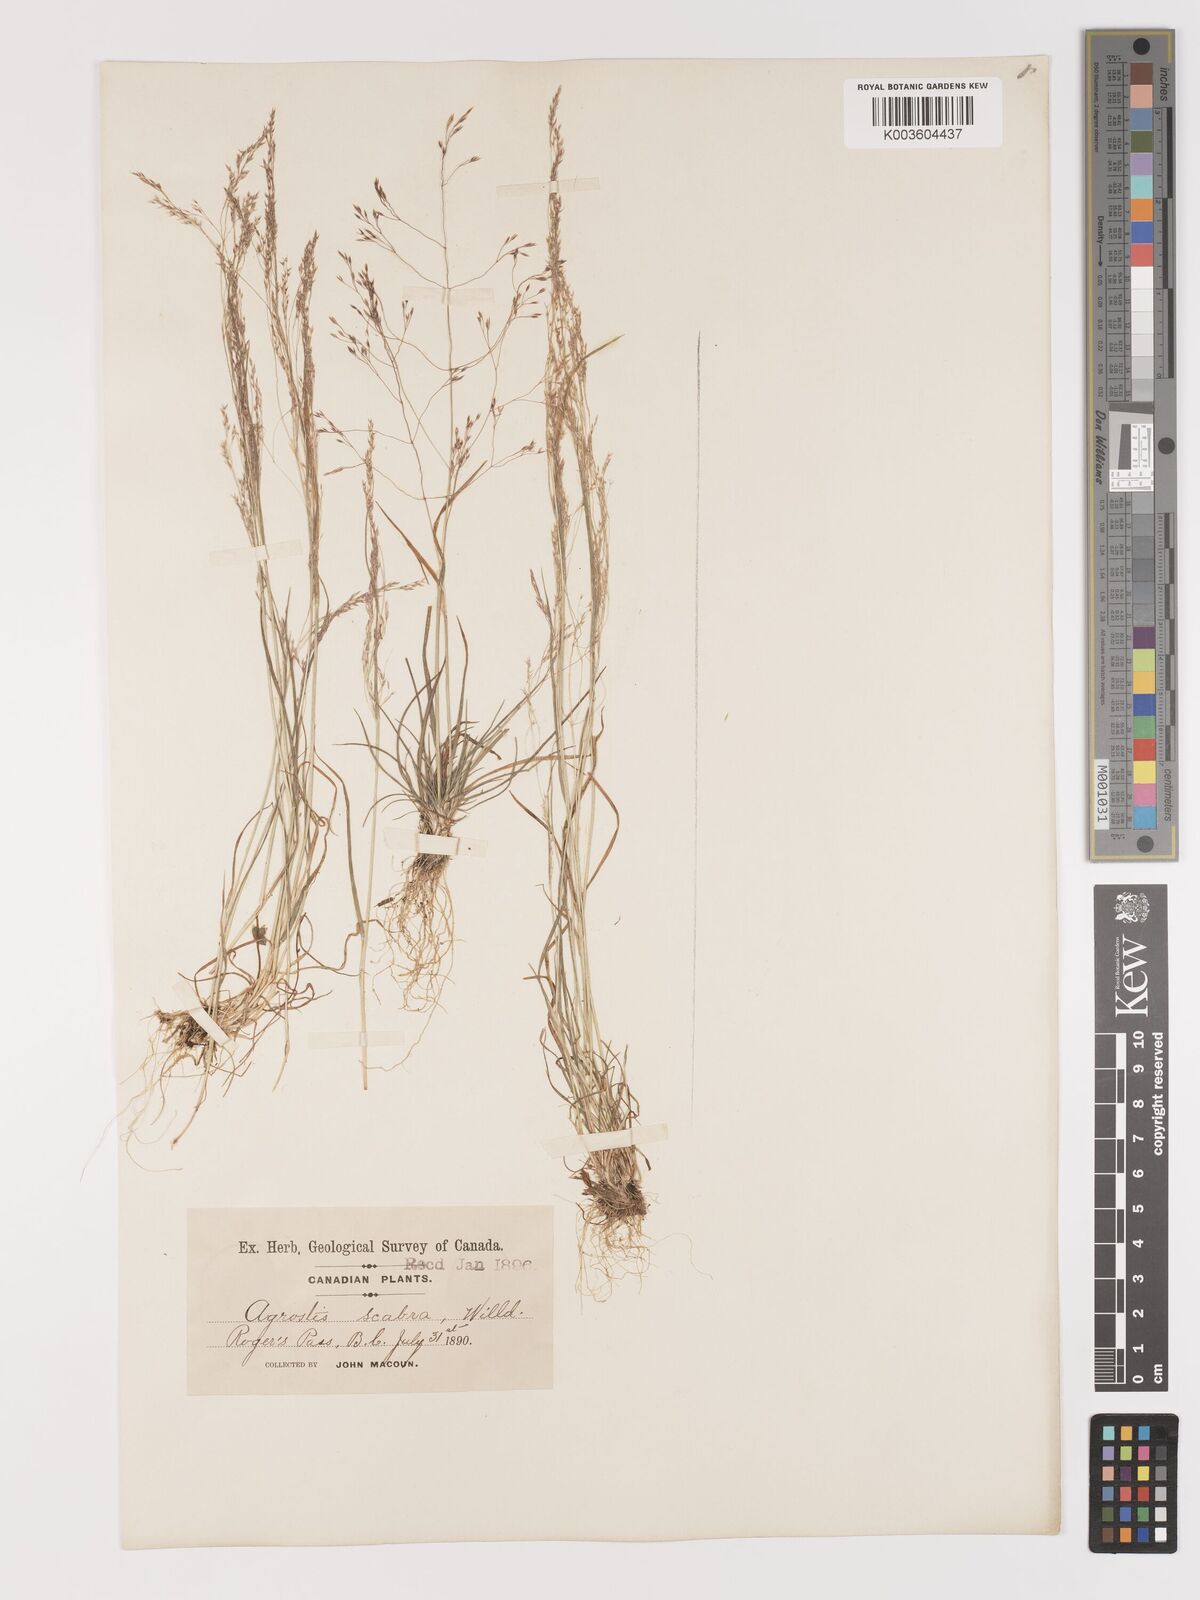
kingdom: Plantae
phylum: Tracheophyta
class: Liliopsida
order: Poales
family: Poaceae
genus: Agrostis
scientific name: Agrostis hyemalis
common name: Small bent
